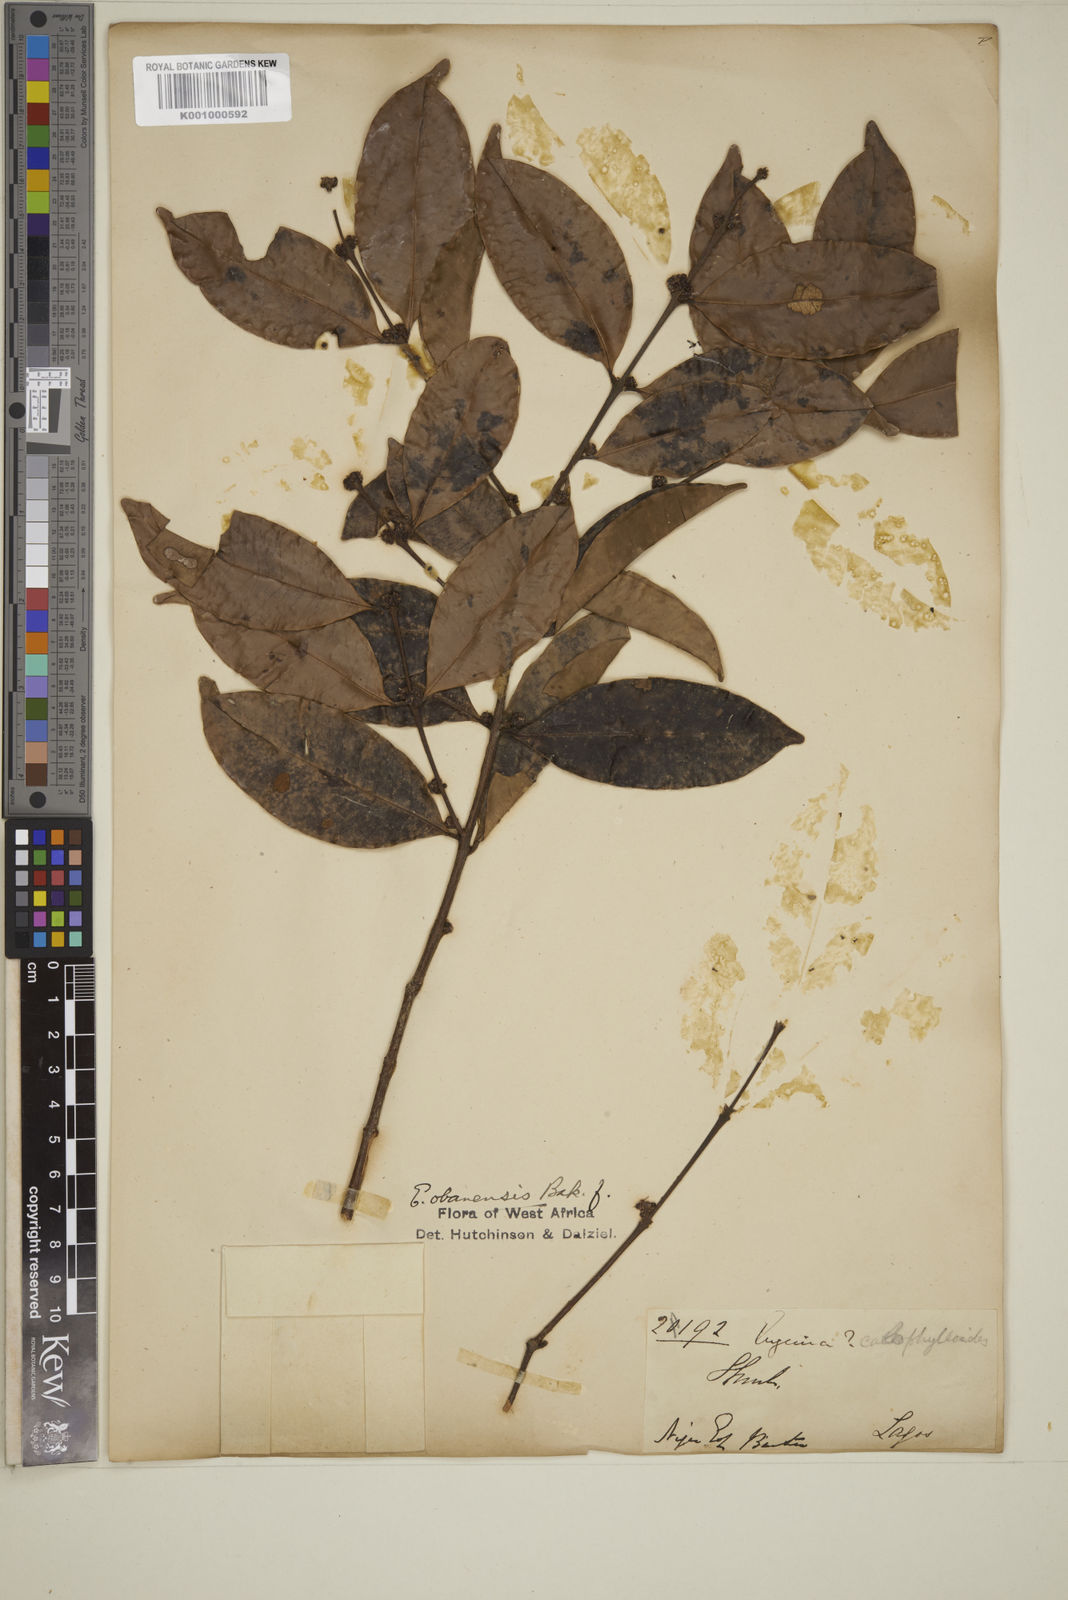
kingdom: Plantae
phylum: Tracheophyta
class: Magnoliopsida
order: Myrtales
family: Myrtaceae
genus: Eugenia
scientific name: Eugenia obanensis
